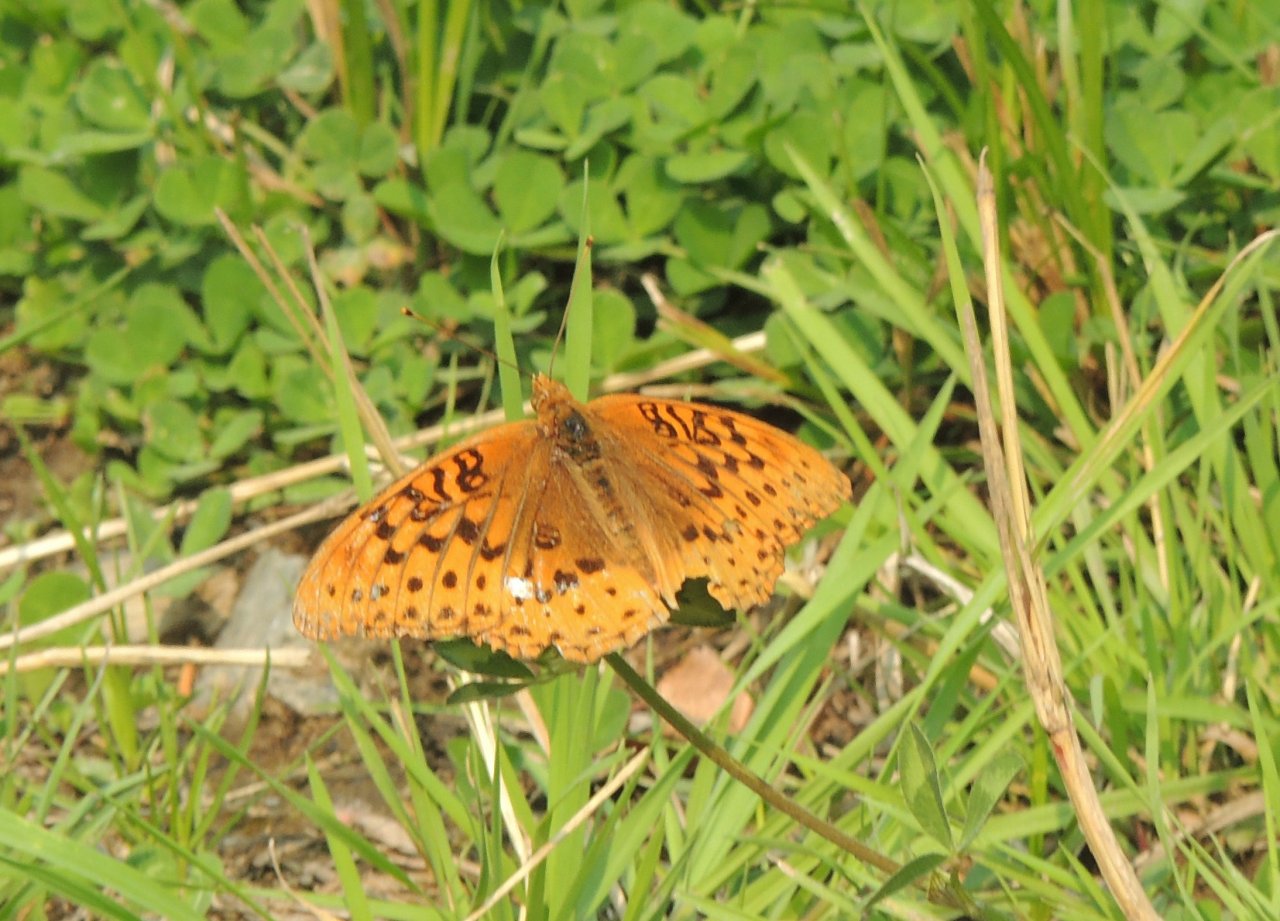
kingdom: Animalia
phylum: Arthropoda
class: Insecta
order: Lepidoptera
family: Nymphalidae
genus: Speyeria
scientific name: Speyeria cybele
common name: Great Spangled Fritillary
